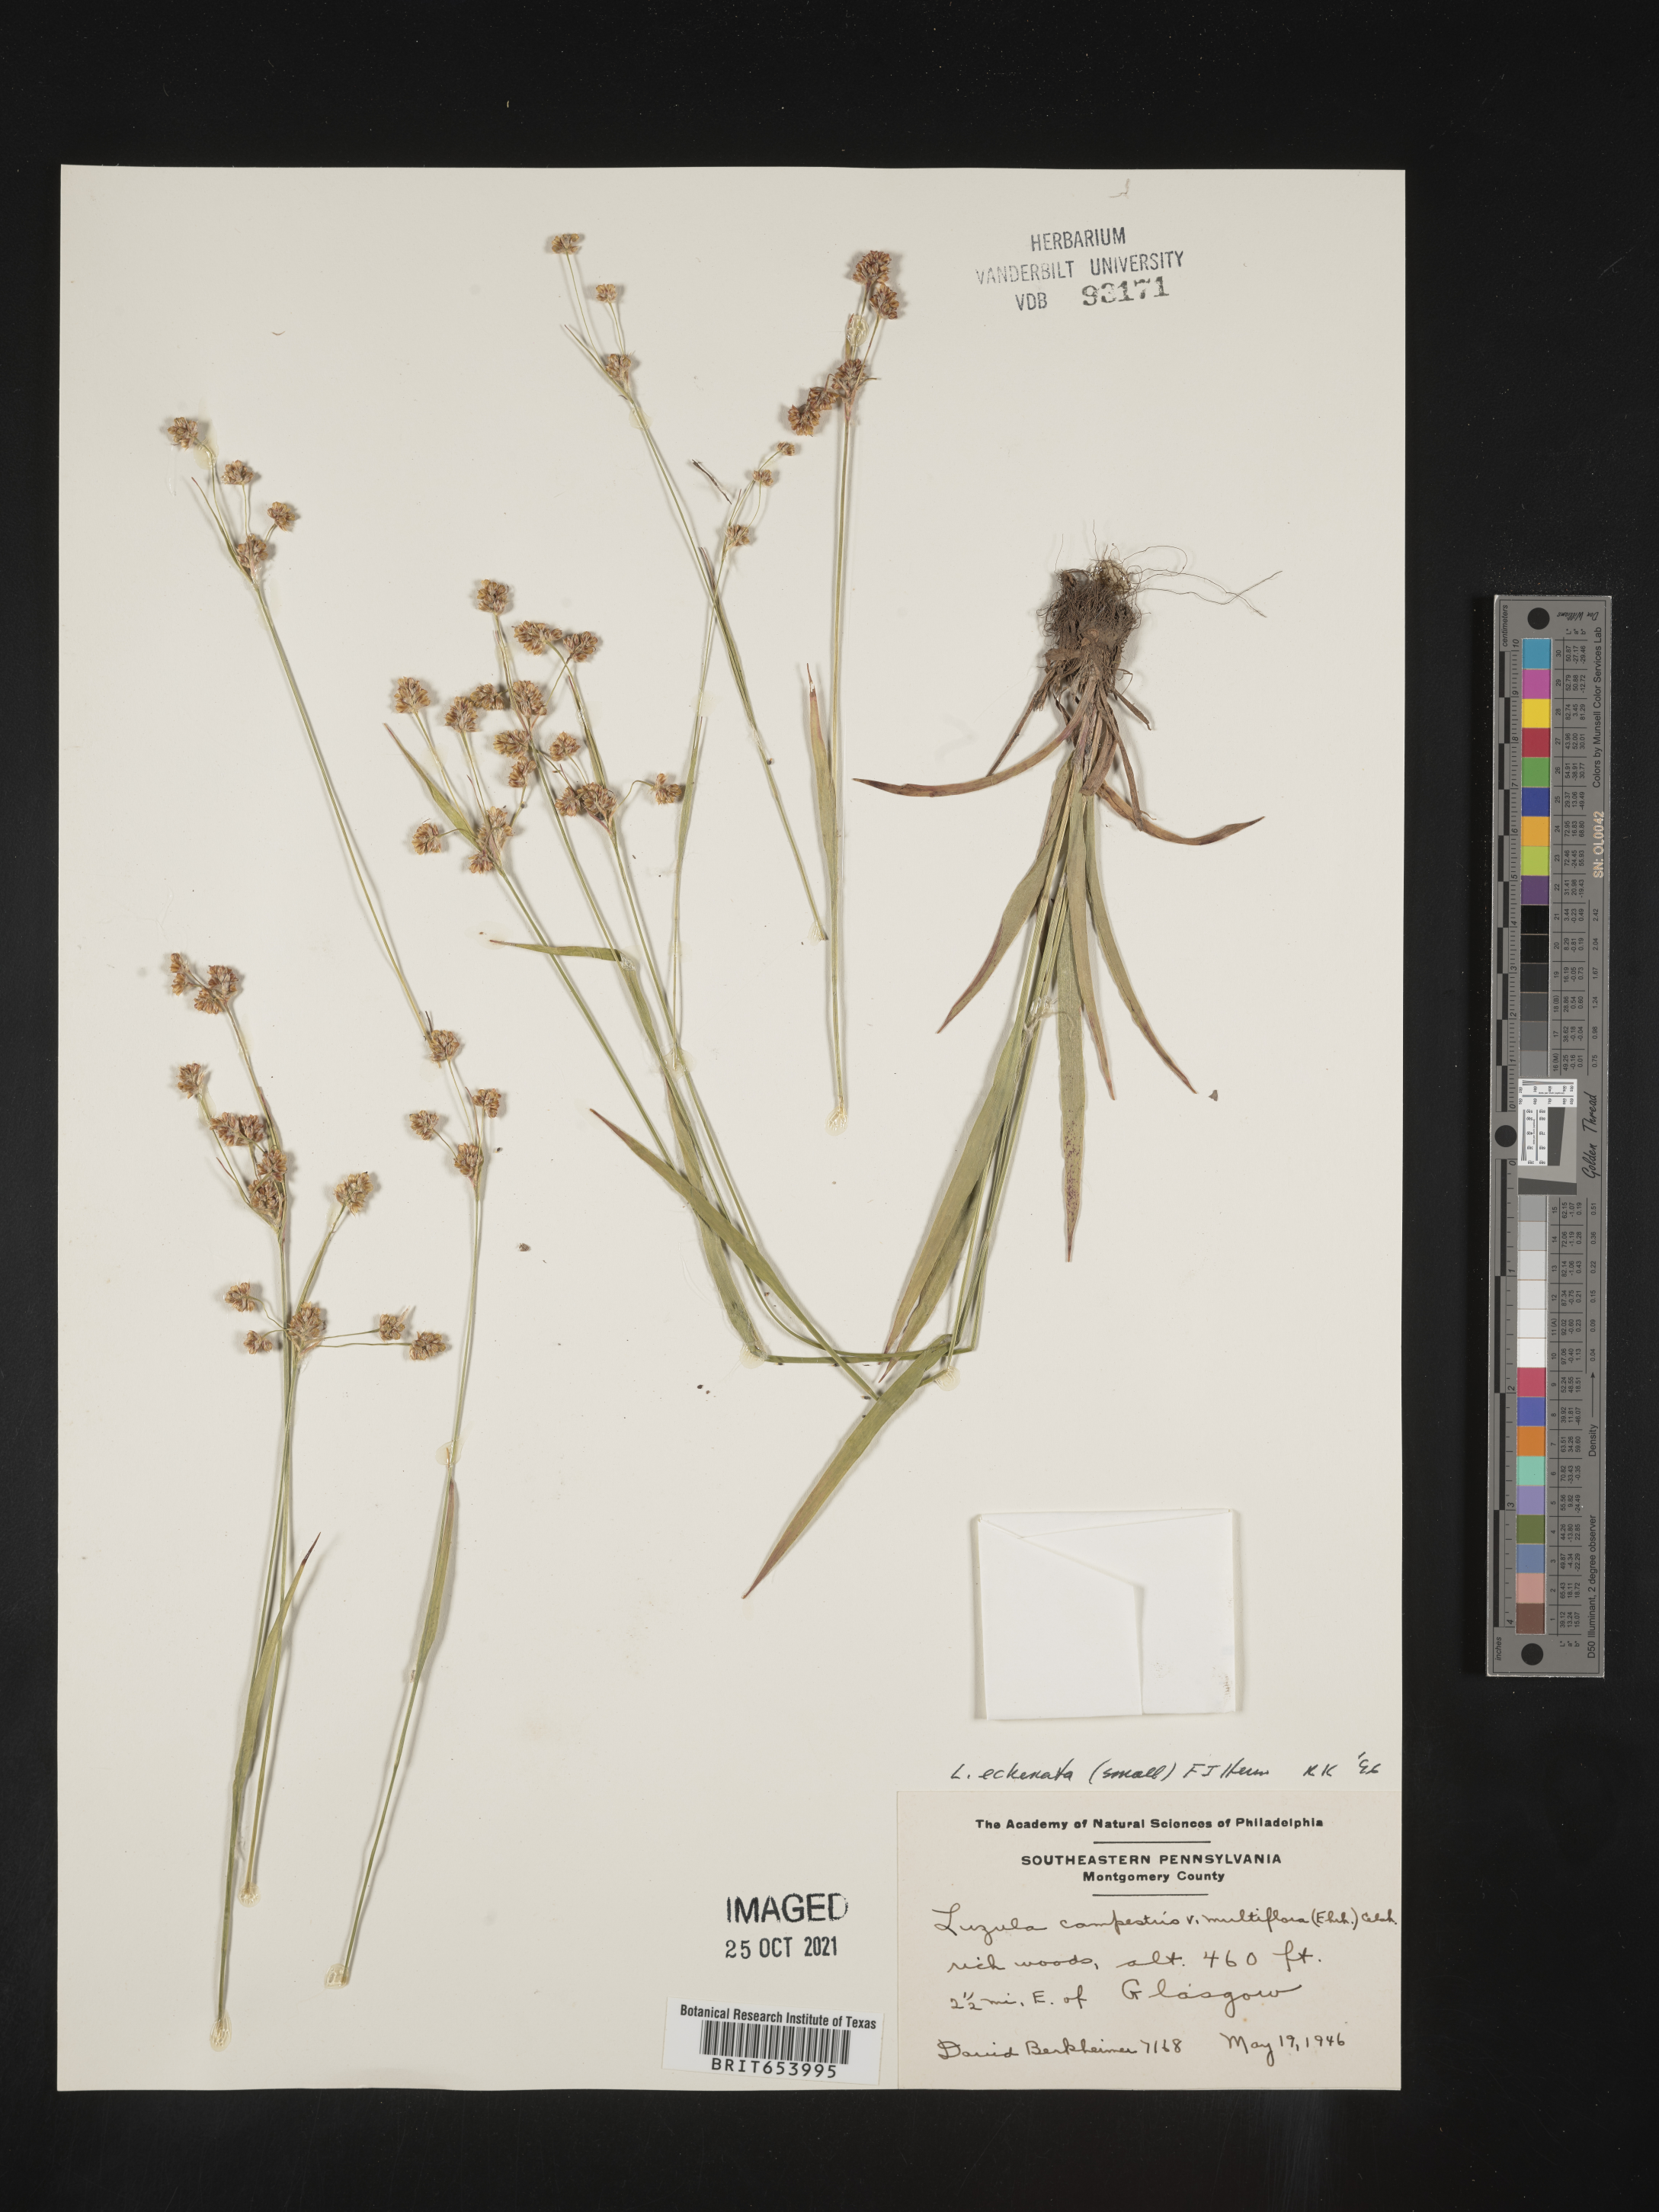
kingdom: Plantae
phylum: Tracheophyta
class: Liliopsida
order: Poales
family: Juncaceae
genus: Luzula
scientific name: Luzula echinata
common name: Hedgehog woodrush
